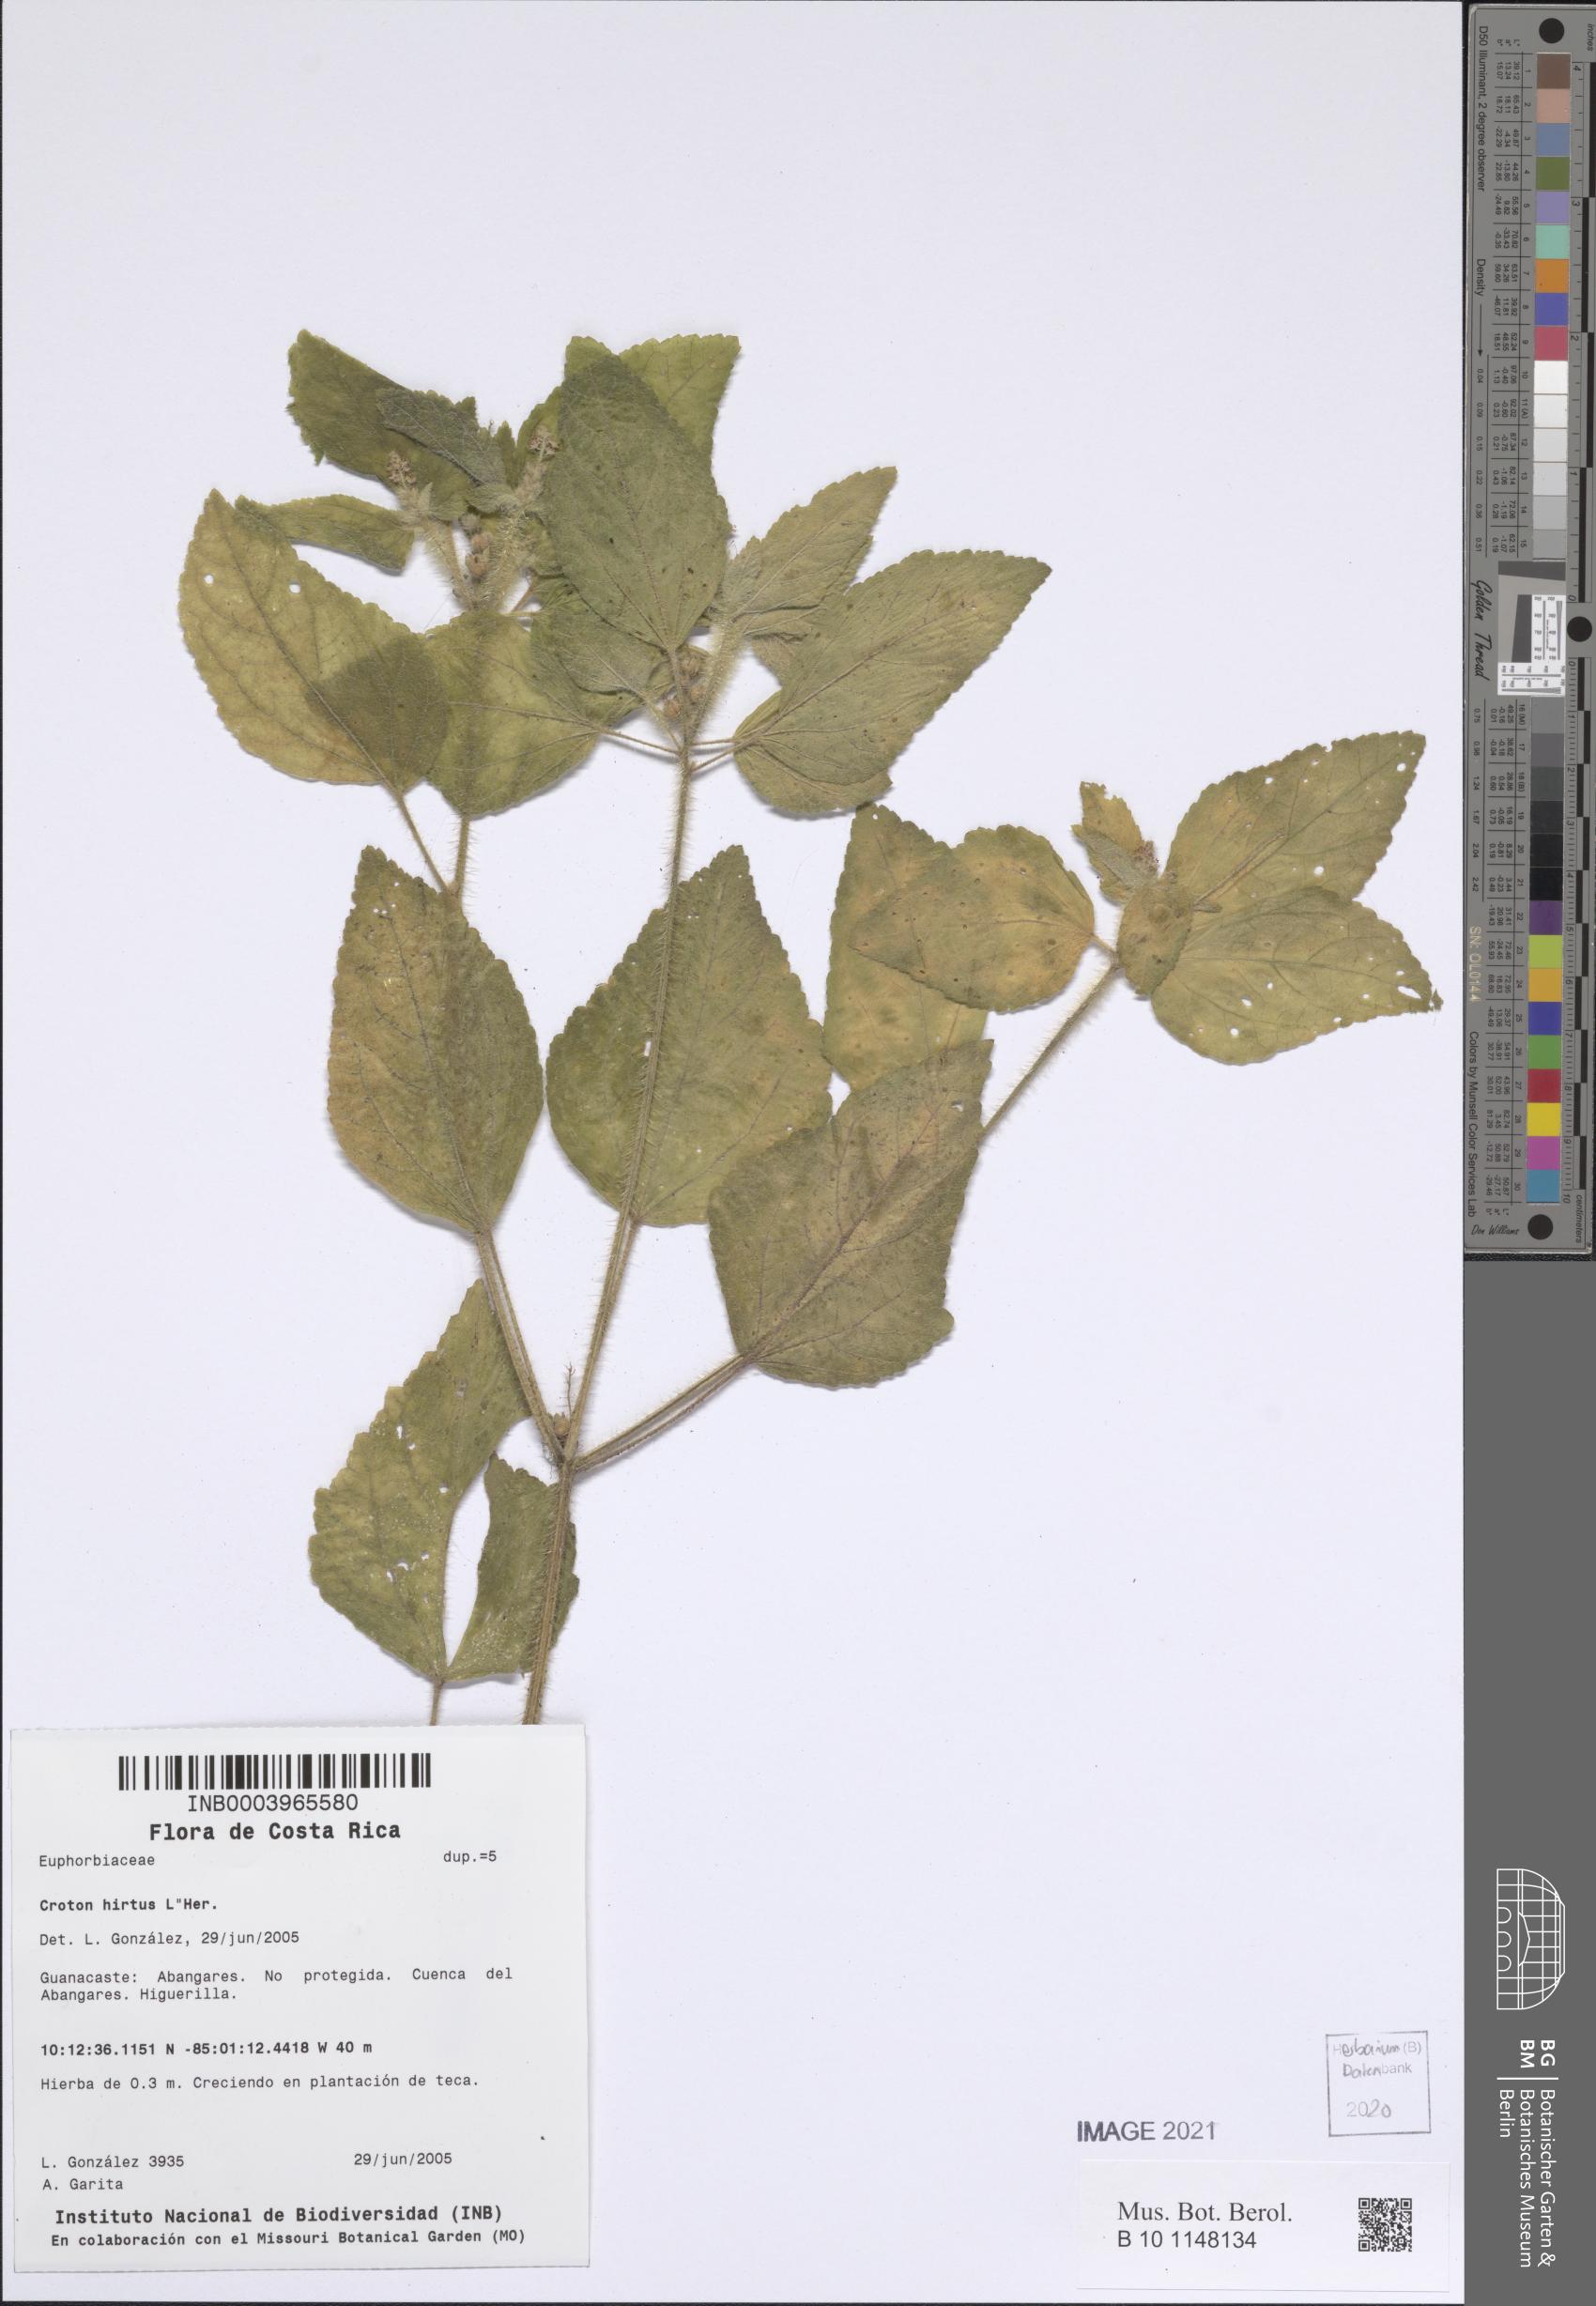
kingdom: Plantae
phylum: Tracheophyta
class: Magnoliopsida
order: Malpighiales
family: Euphorbiaceae
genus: Croton
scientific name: Croton hirtus
